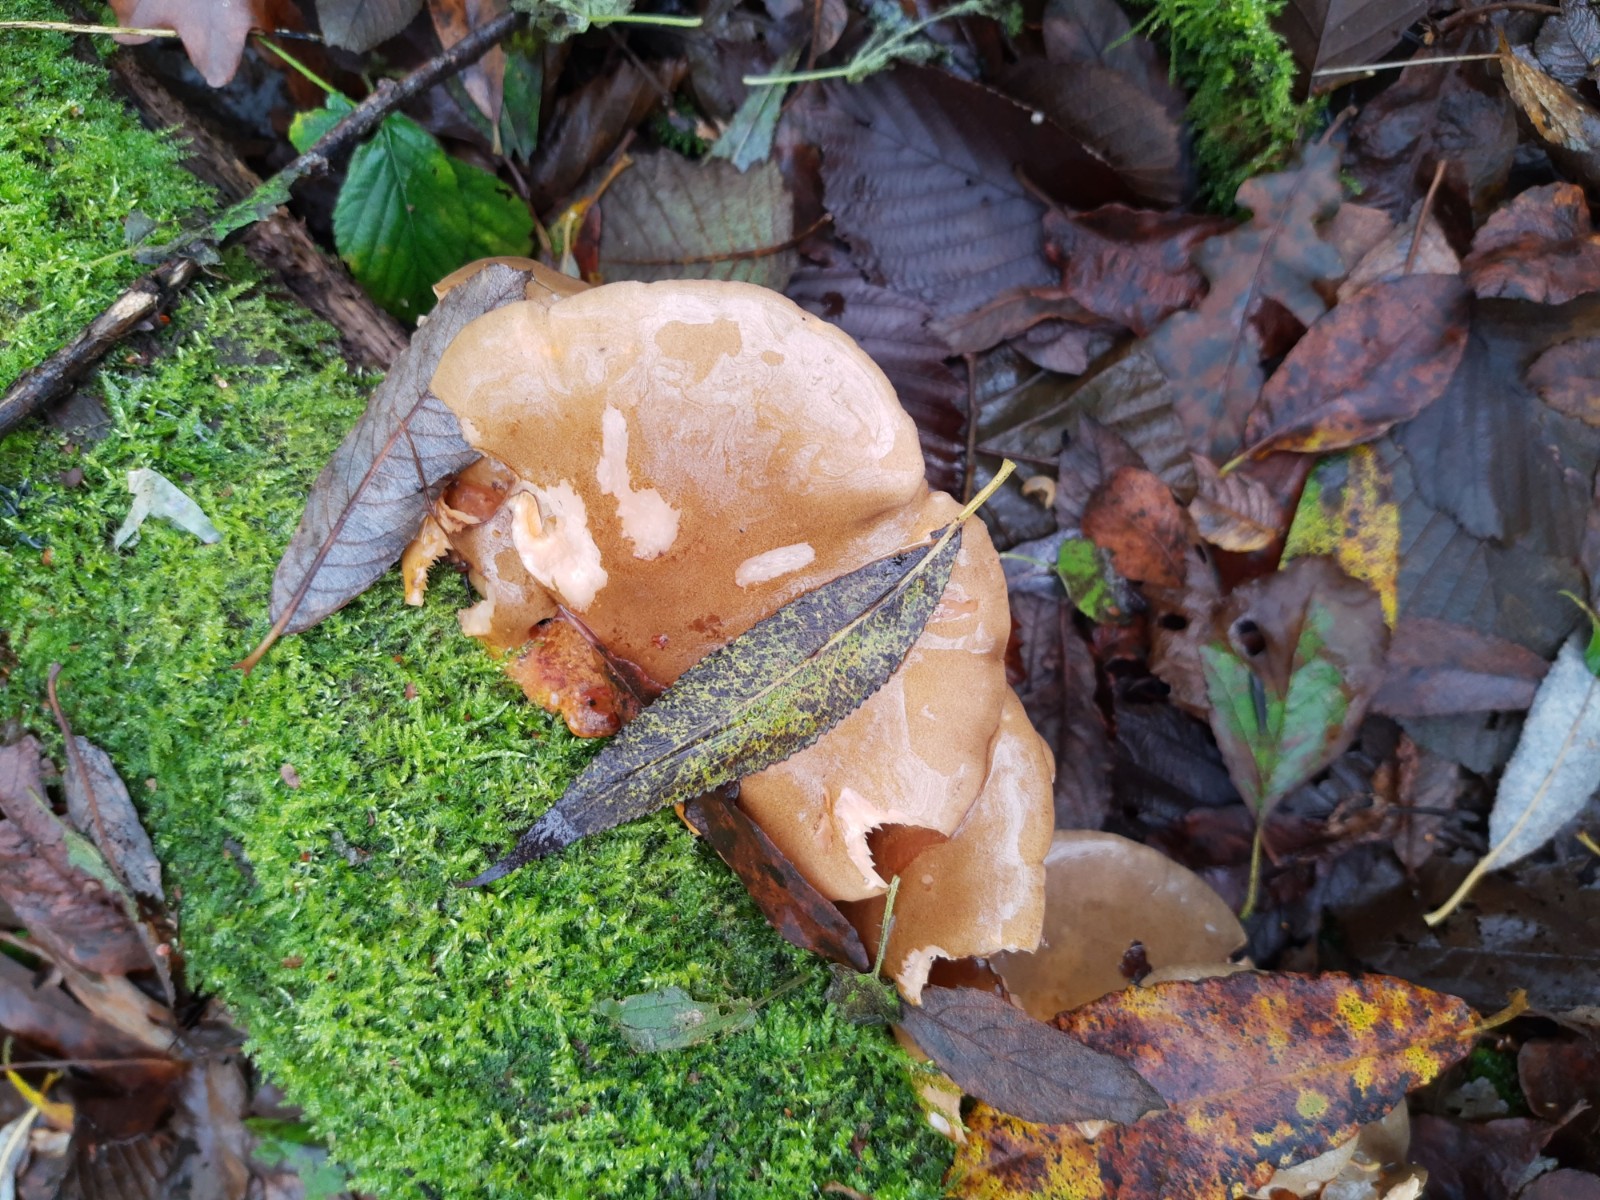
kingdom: Fungi
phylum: Basidiomycota
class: Agaricomycetes
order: Agaricales
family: Sarcomyxaceae
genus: Sarcomyxa
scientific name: Sarcomyxa serotina
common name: gummihat
